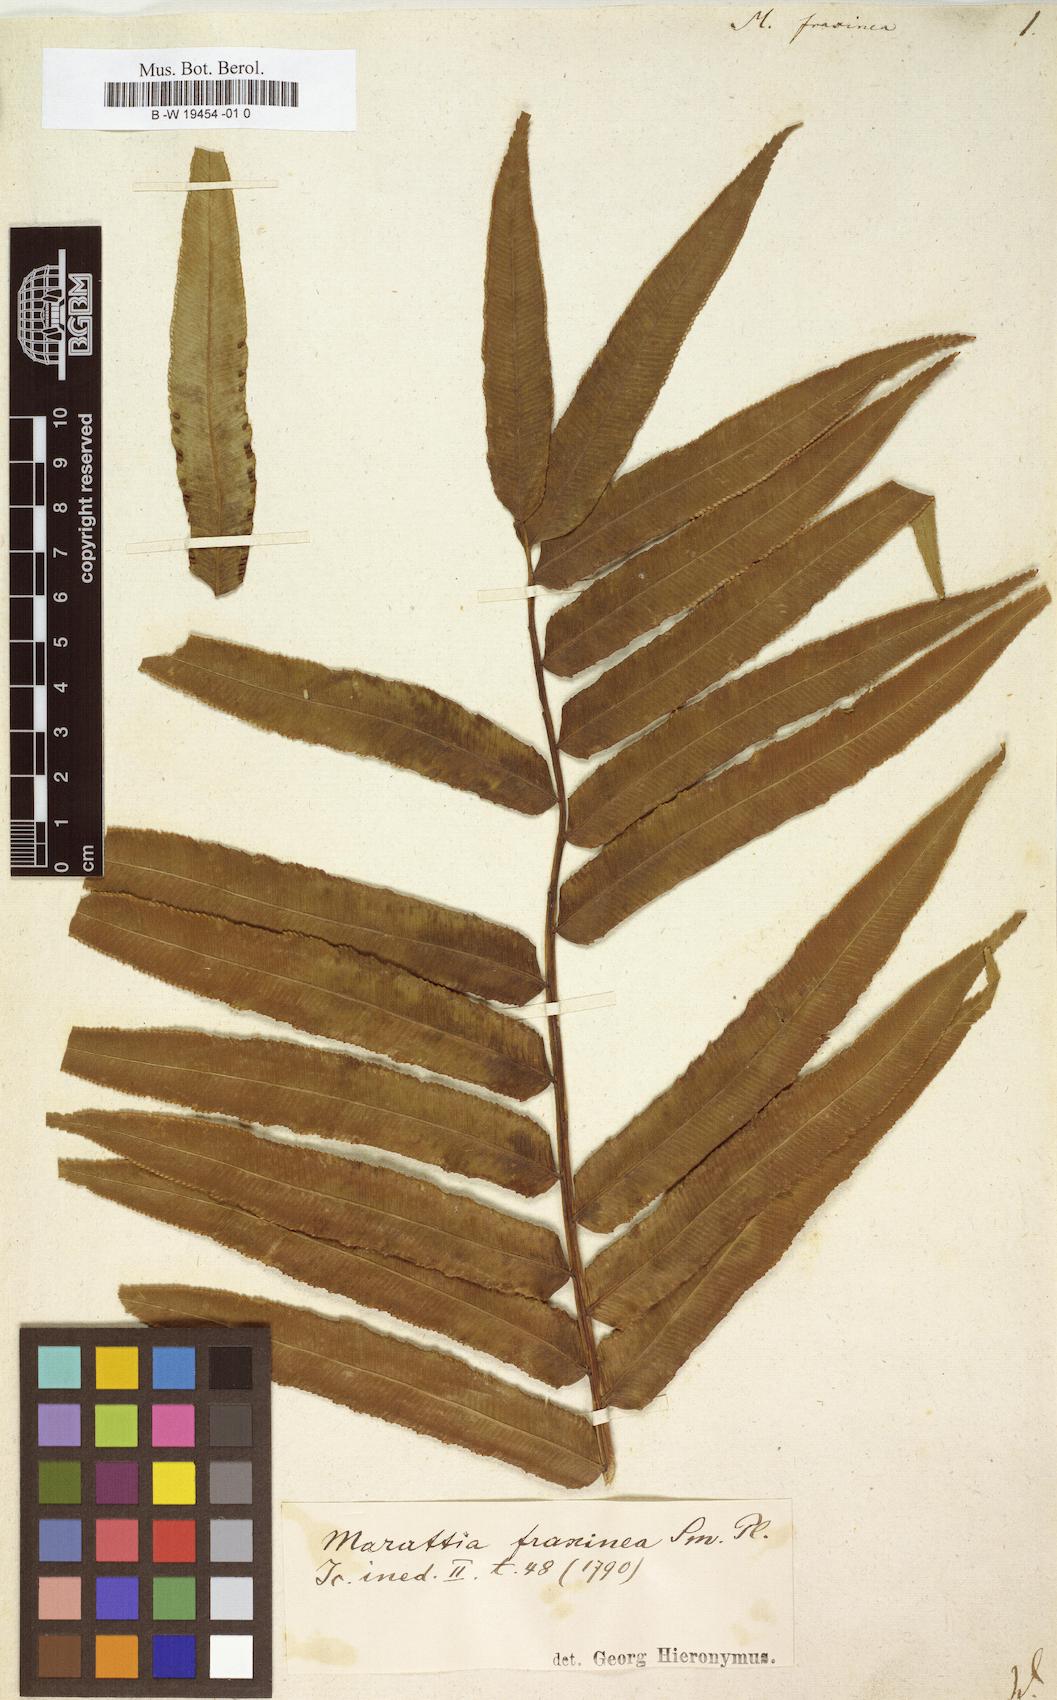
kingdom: Plantae
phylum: Tracheophyta
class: Polypodiopsida
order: Marattiales
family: Marattiaceae
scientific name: Marattiaceae
